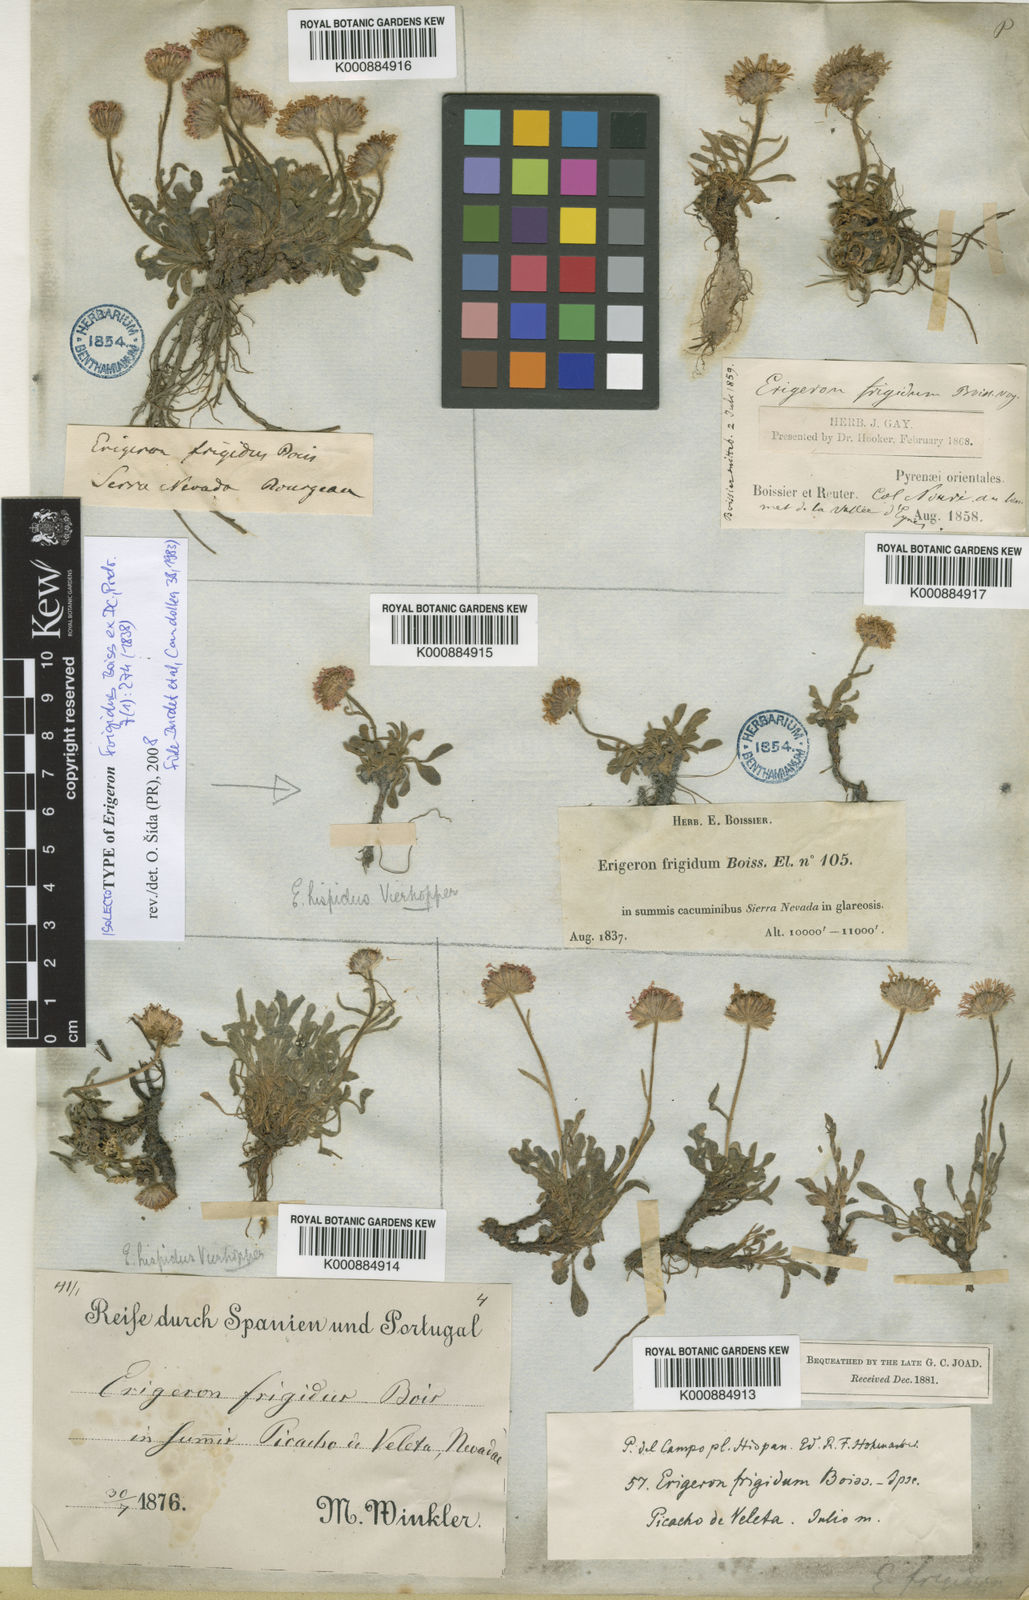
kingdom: Plantae
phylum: Tracheophyta
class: Magnoliopsida
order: Asterales
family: Asteraceae
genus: Erigeron
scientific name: Erigeron frigidus
